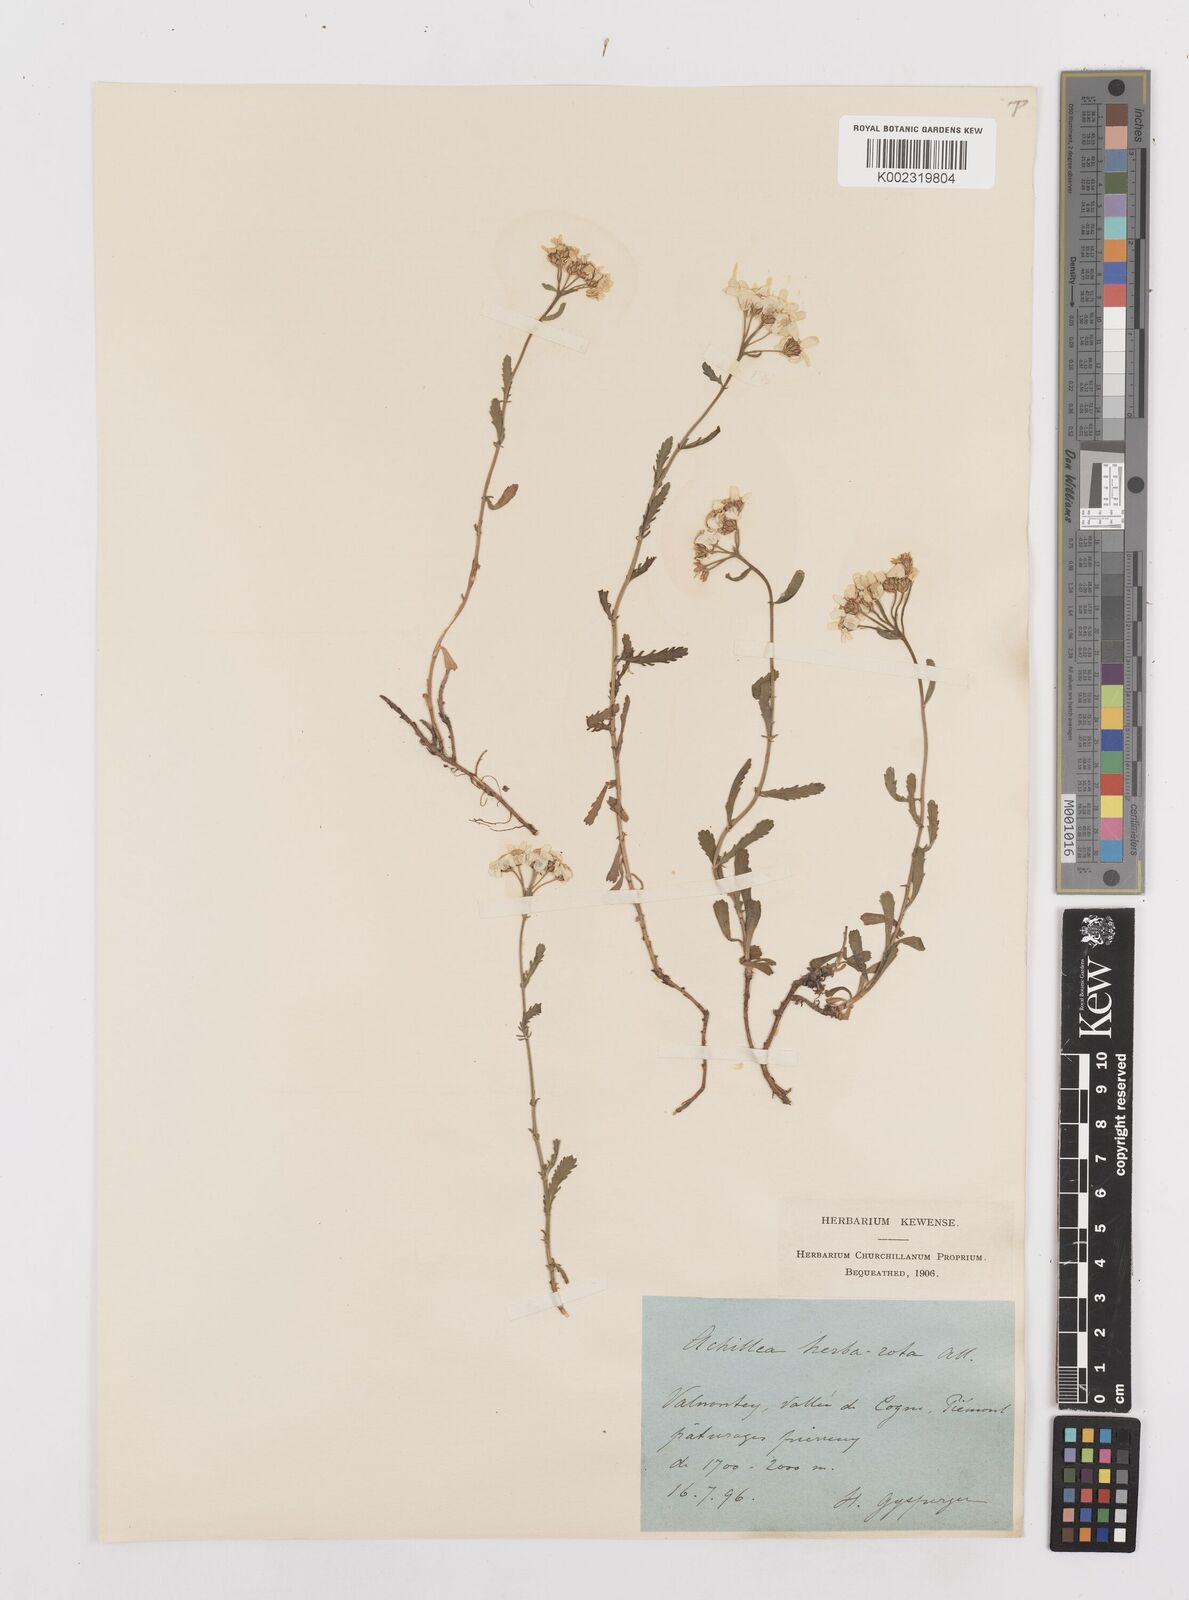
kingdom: Plantae
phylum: Tracheophyta
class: Magnoliopsida
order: Asterales
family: Asteraceae
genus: Achillea
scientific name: Achillea erba-rotta
